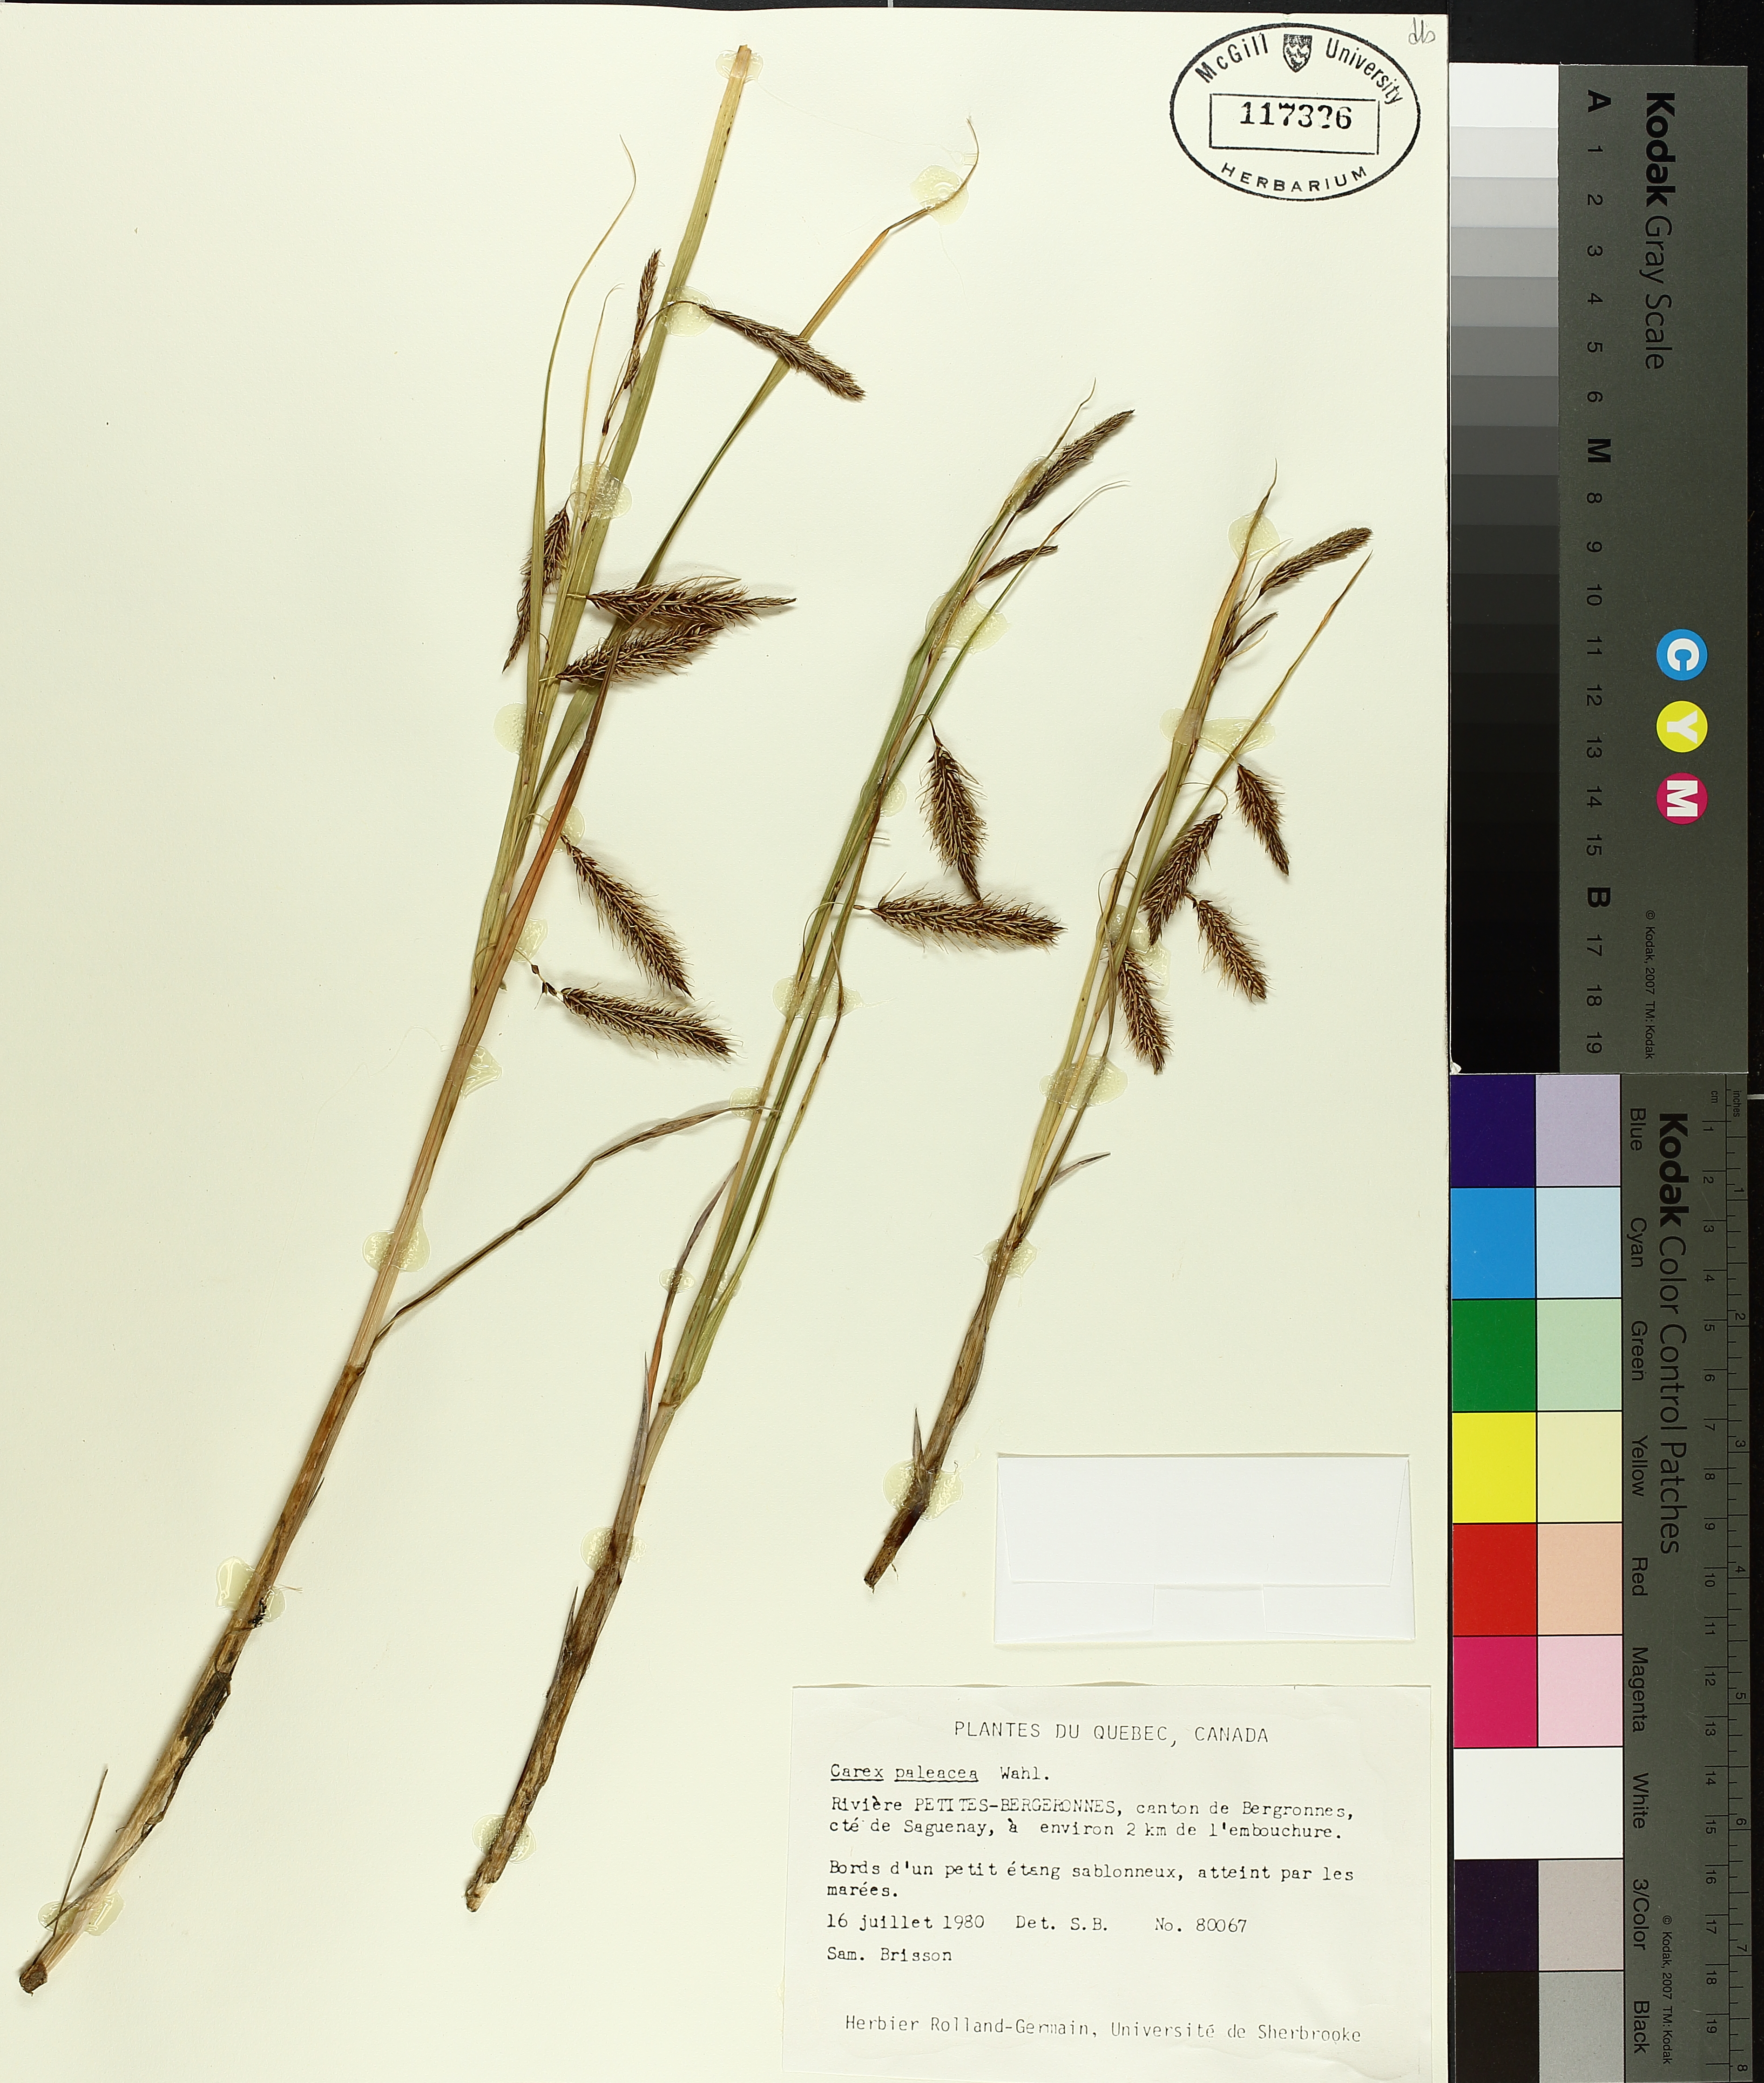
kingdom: Plantae
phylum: Tracheophyta
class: Liliopsida
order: Poales
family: Cyperaceae
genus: Carex
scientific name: Carex paleacea
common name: Chaffy sedge
